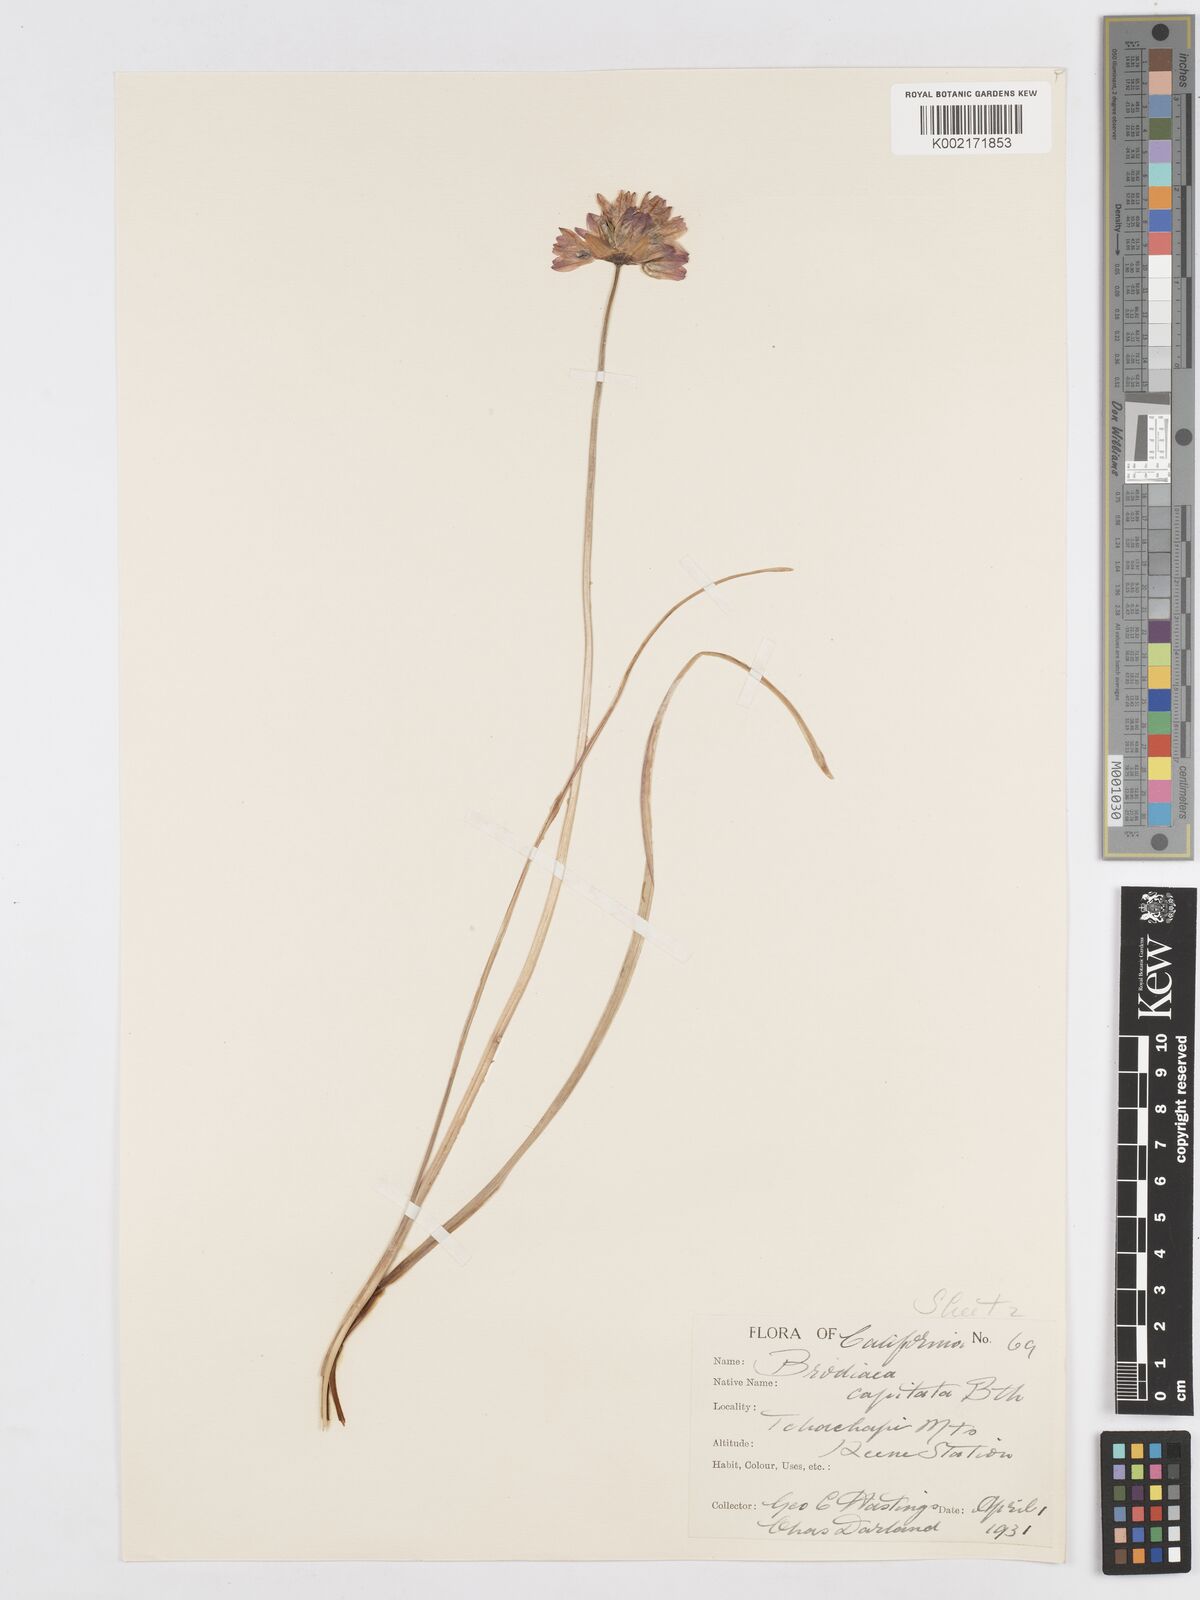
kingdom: Plantae
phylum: Tracheophyta
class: Liliopsida
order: Asparagales
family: Asparagaceae
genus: Dichelostemma
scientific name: Dichelostemma congestum
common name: Fork-tooth ookow
